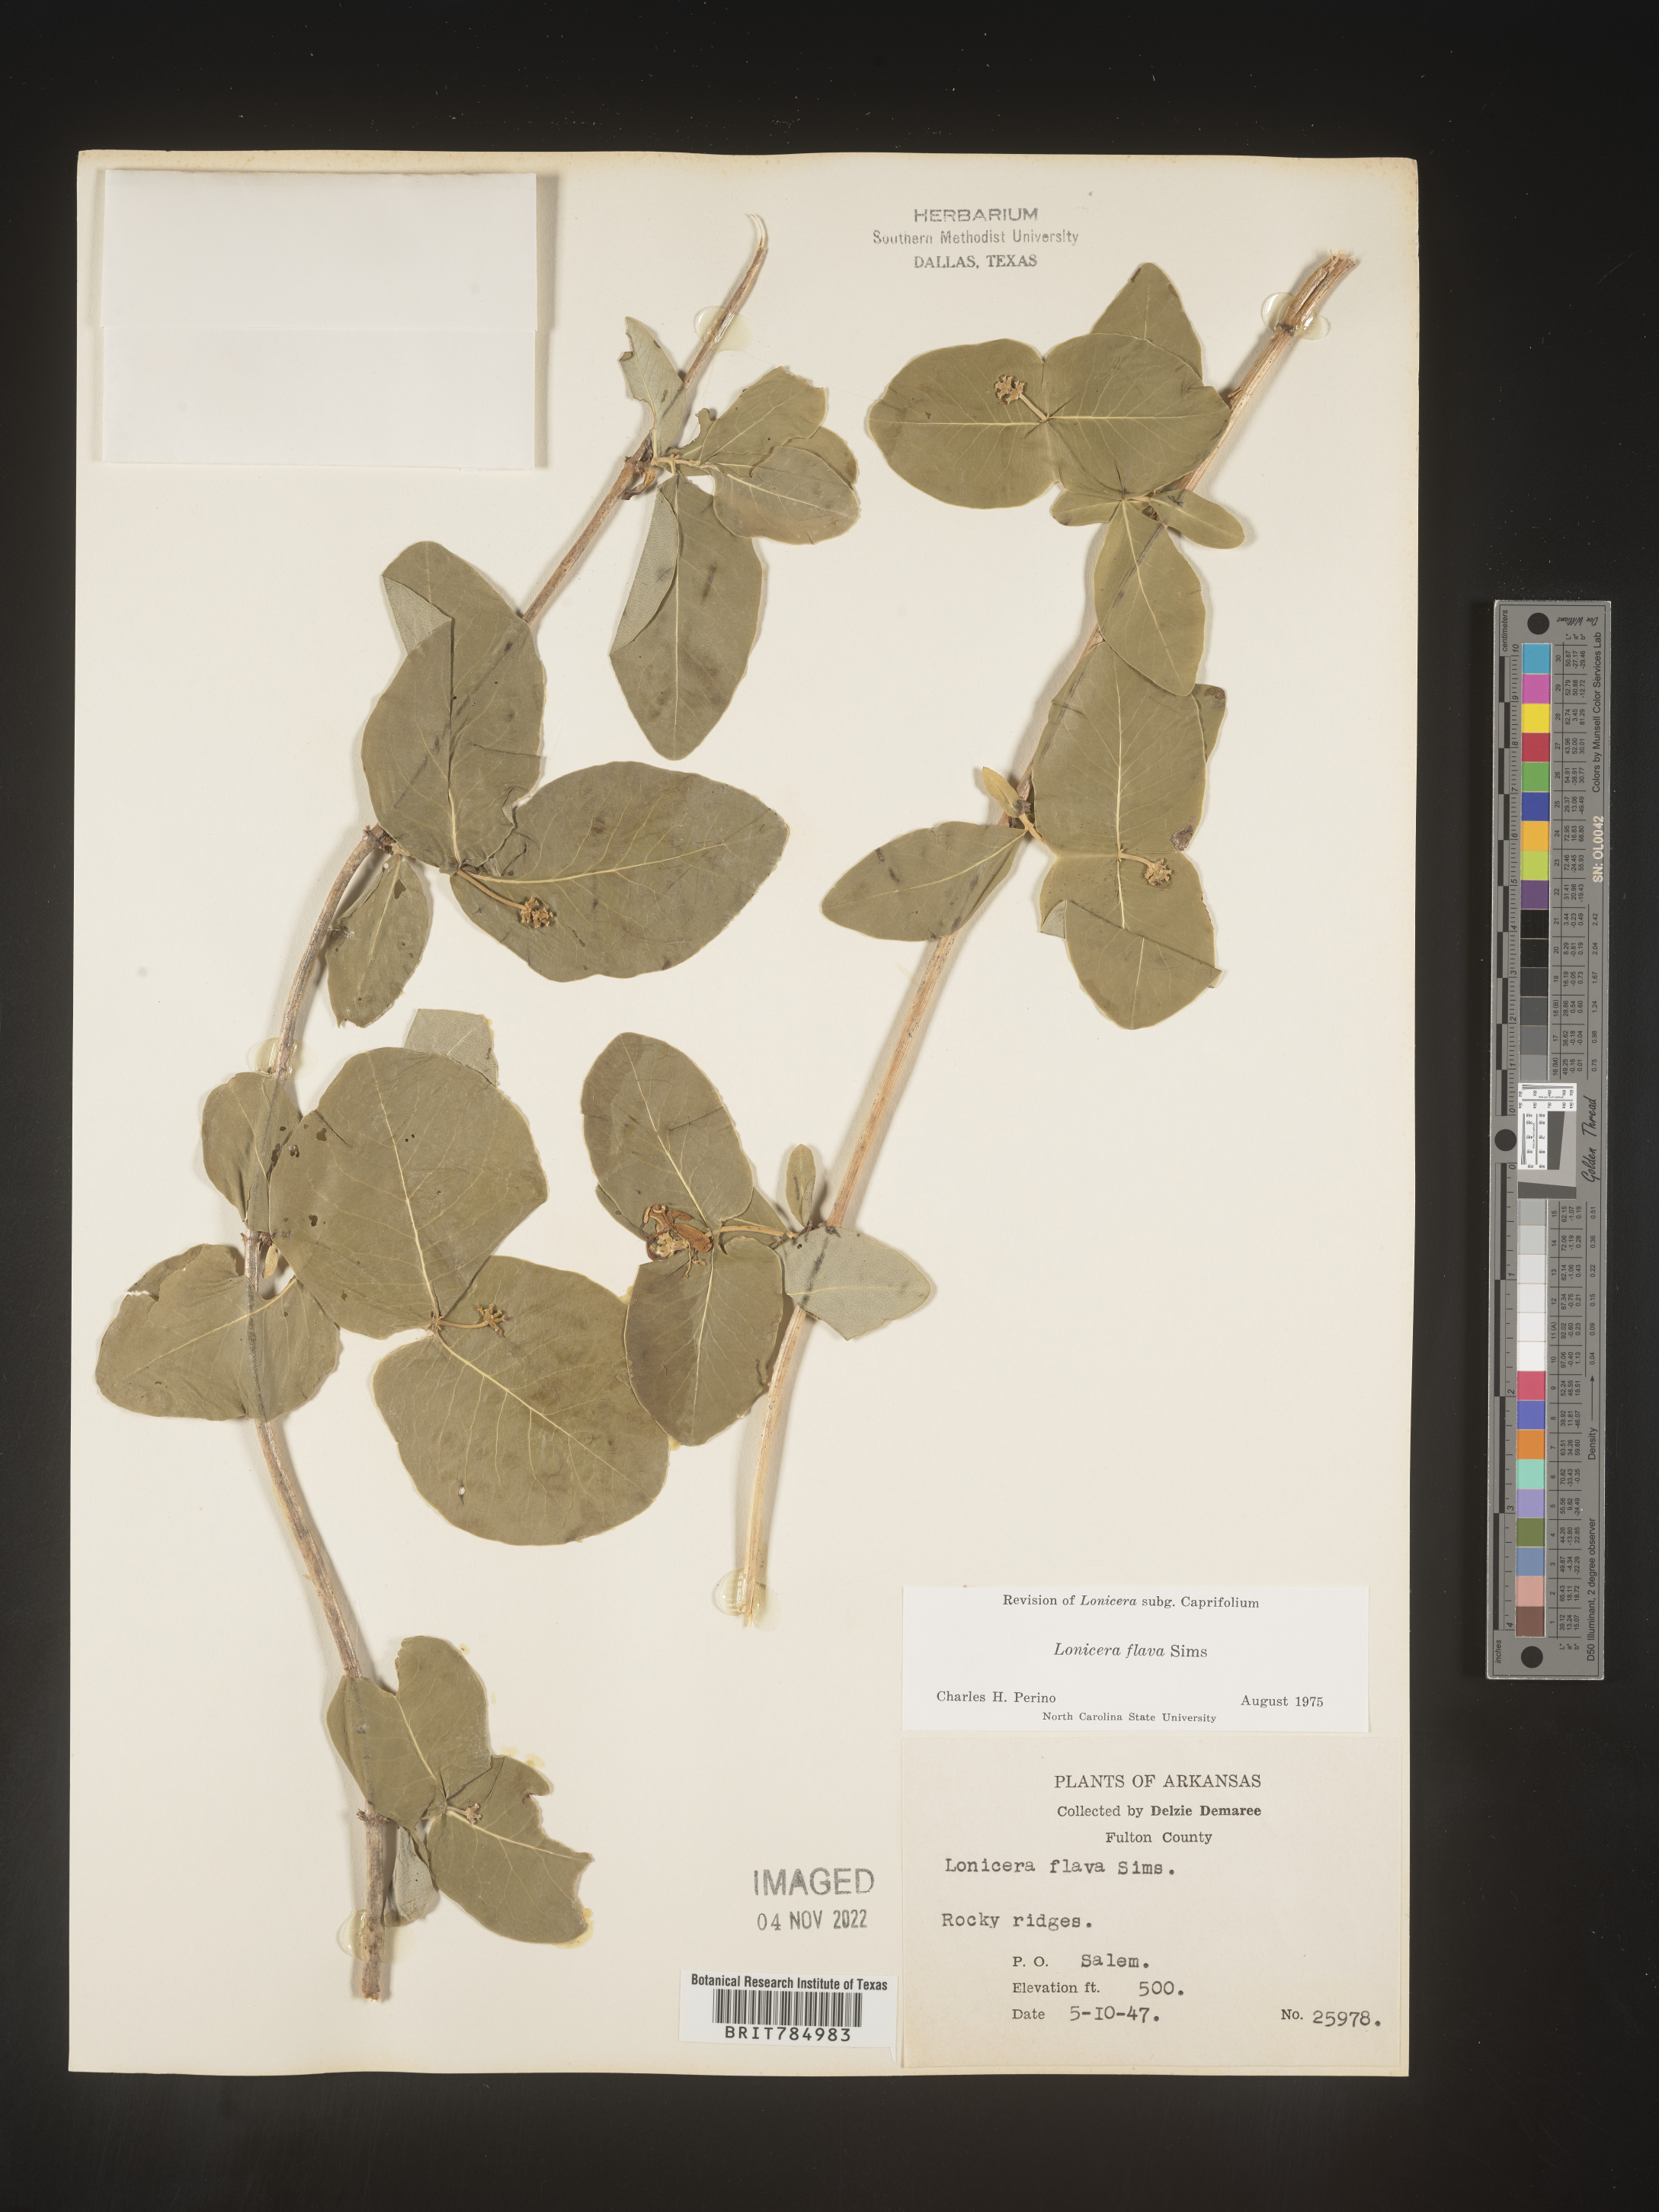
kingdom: Plantae
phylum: Tracheophyta
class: Magnoliopsida
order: Dipsacales
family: Caprifoliaceae
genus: Lonicera
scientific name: Lonicera flava
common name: Yellow honeysuckle
